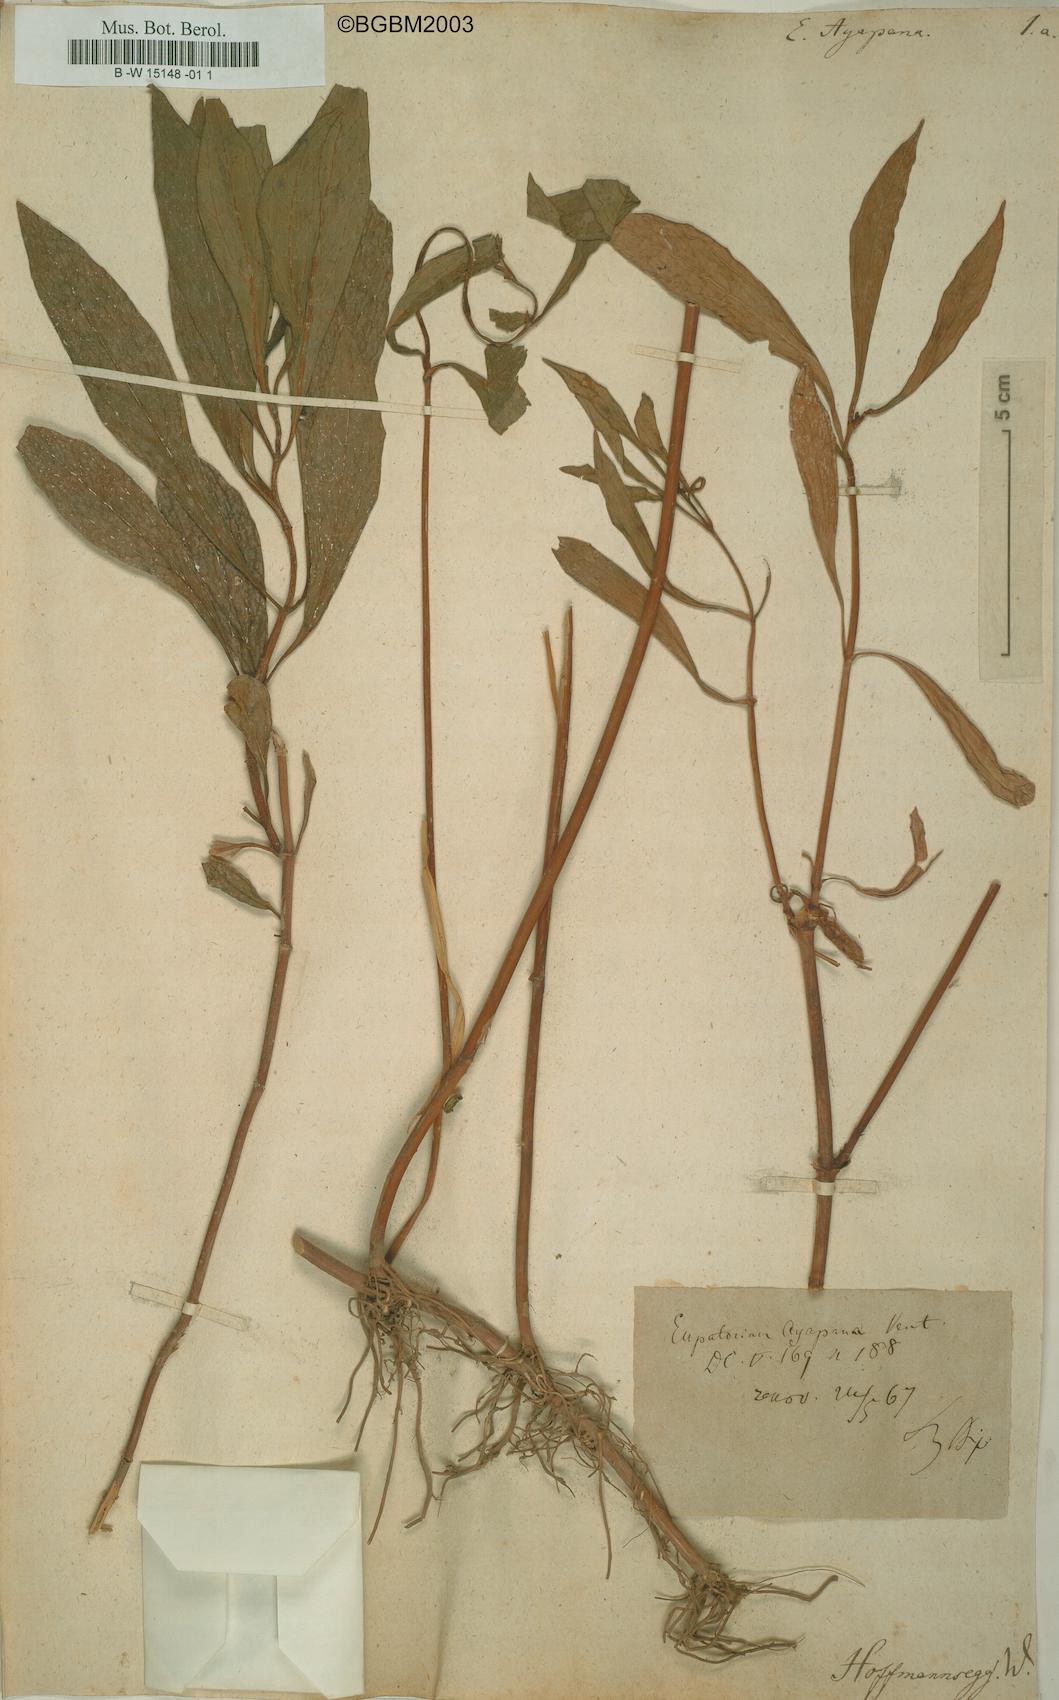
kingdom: Plantae
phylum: Tracheophyta
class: Magnoliopsida
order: Asterales
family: Asteraceae
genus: Ayapana
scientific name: Ayapana triplinervis
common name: Triplinerved eupatorium
